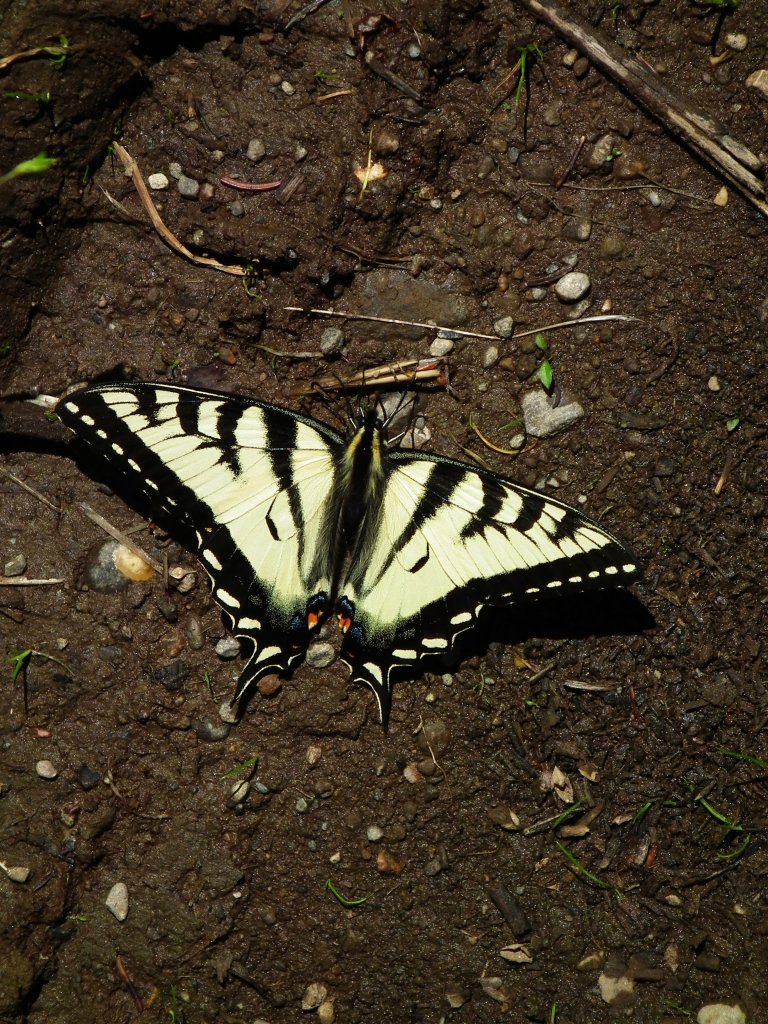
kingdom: Animalia
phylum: Arthropoda
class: Insecta
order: Lepidoptera
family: Papilionidae
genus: Pterourus
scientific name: Pterourus canadensis
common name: Canadian Tiger Swallowtail
